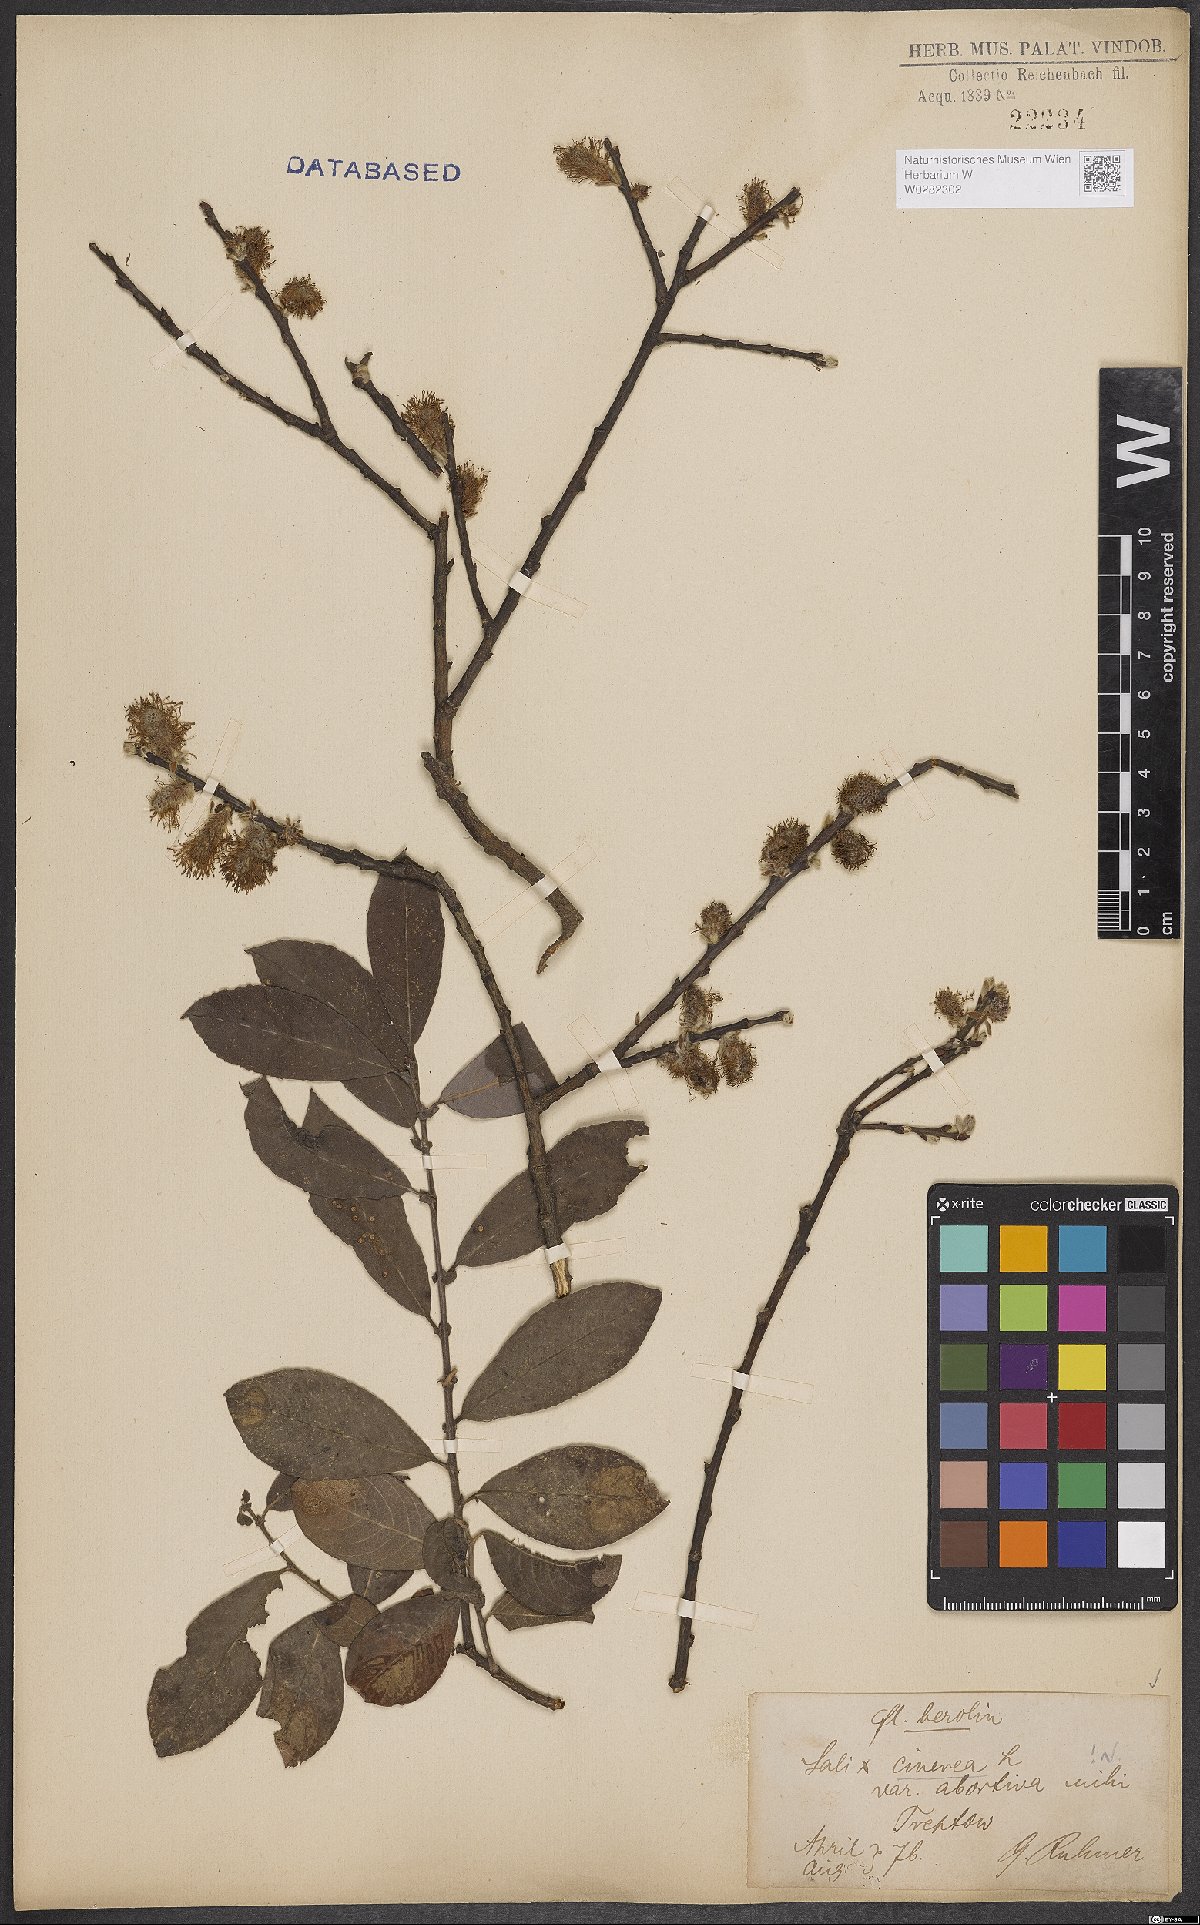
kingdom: Plantae
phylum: Tracheophyta
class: Magnoliopsida
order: Malpighiales
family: Salicaceae
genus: Salix
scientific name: Salix cinerea
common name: Common sallow
